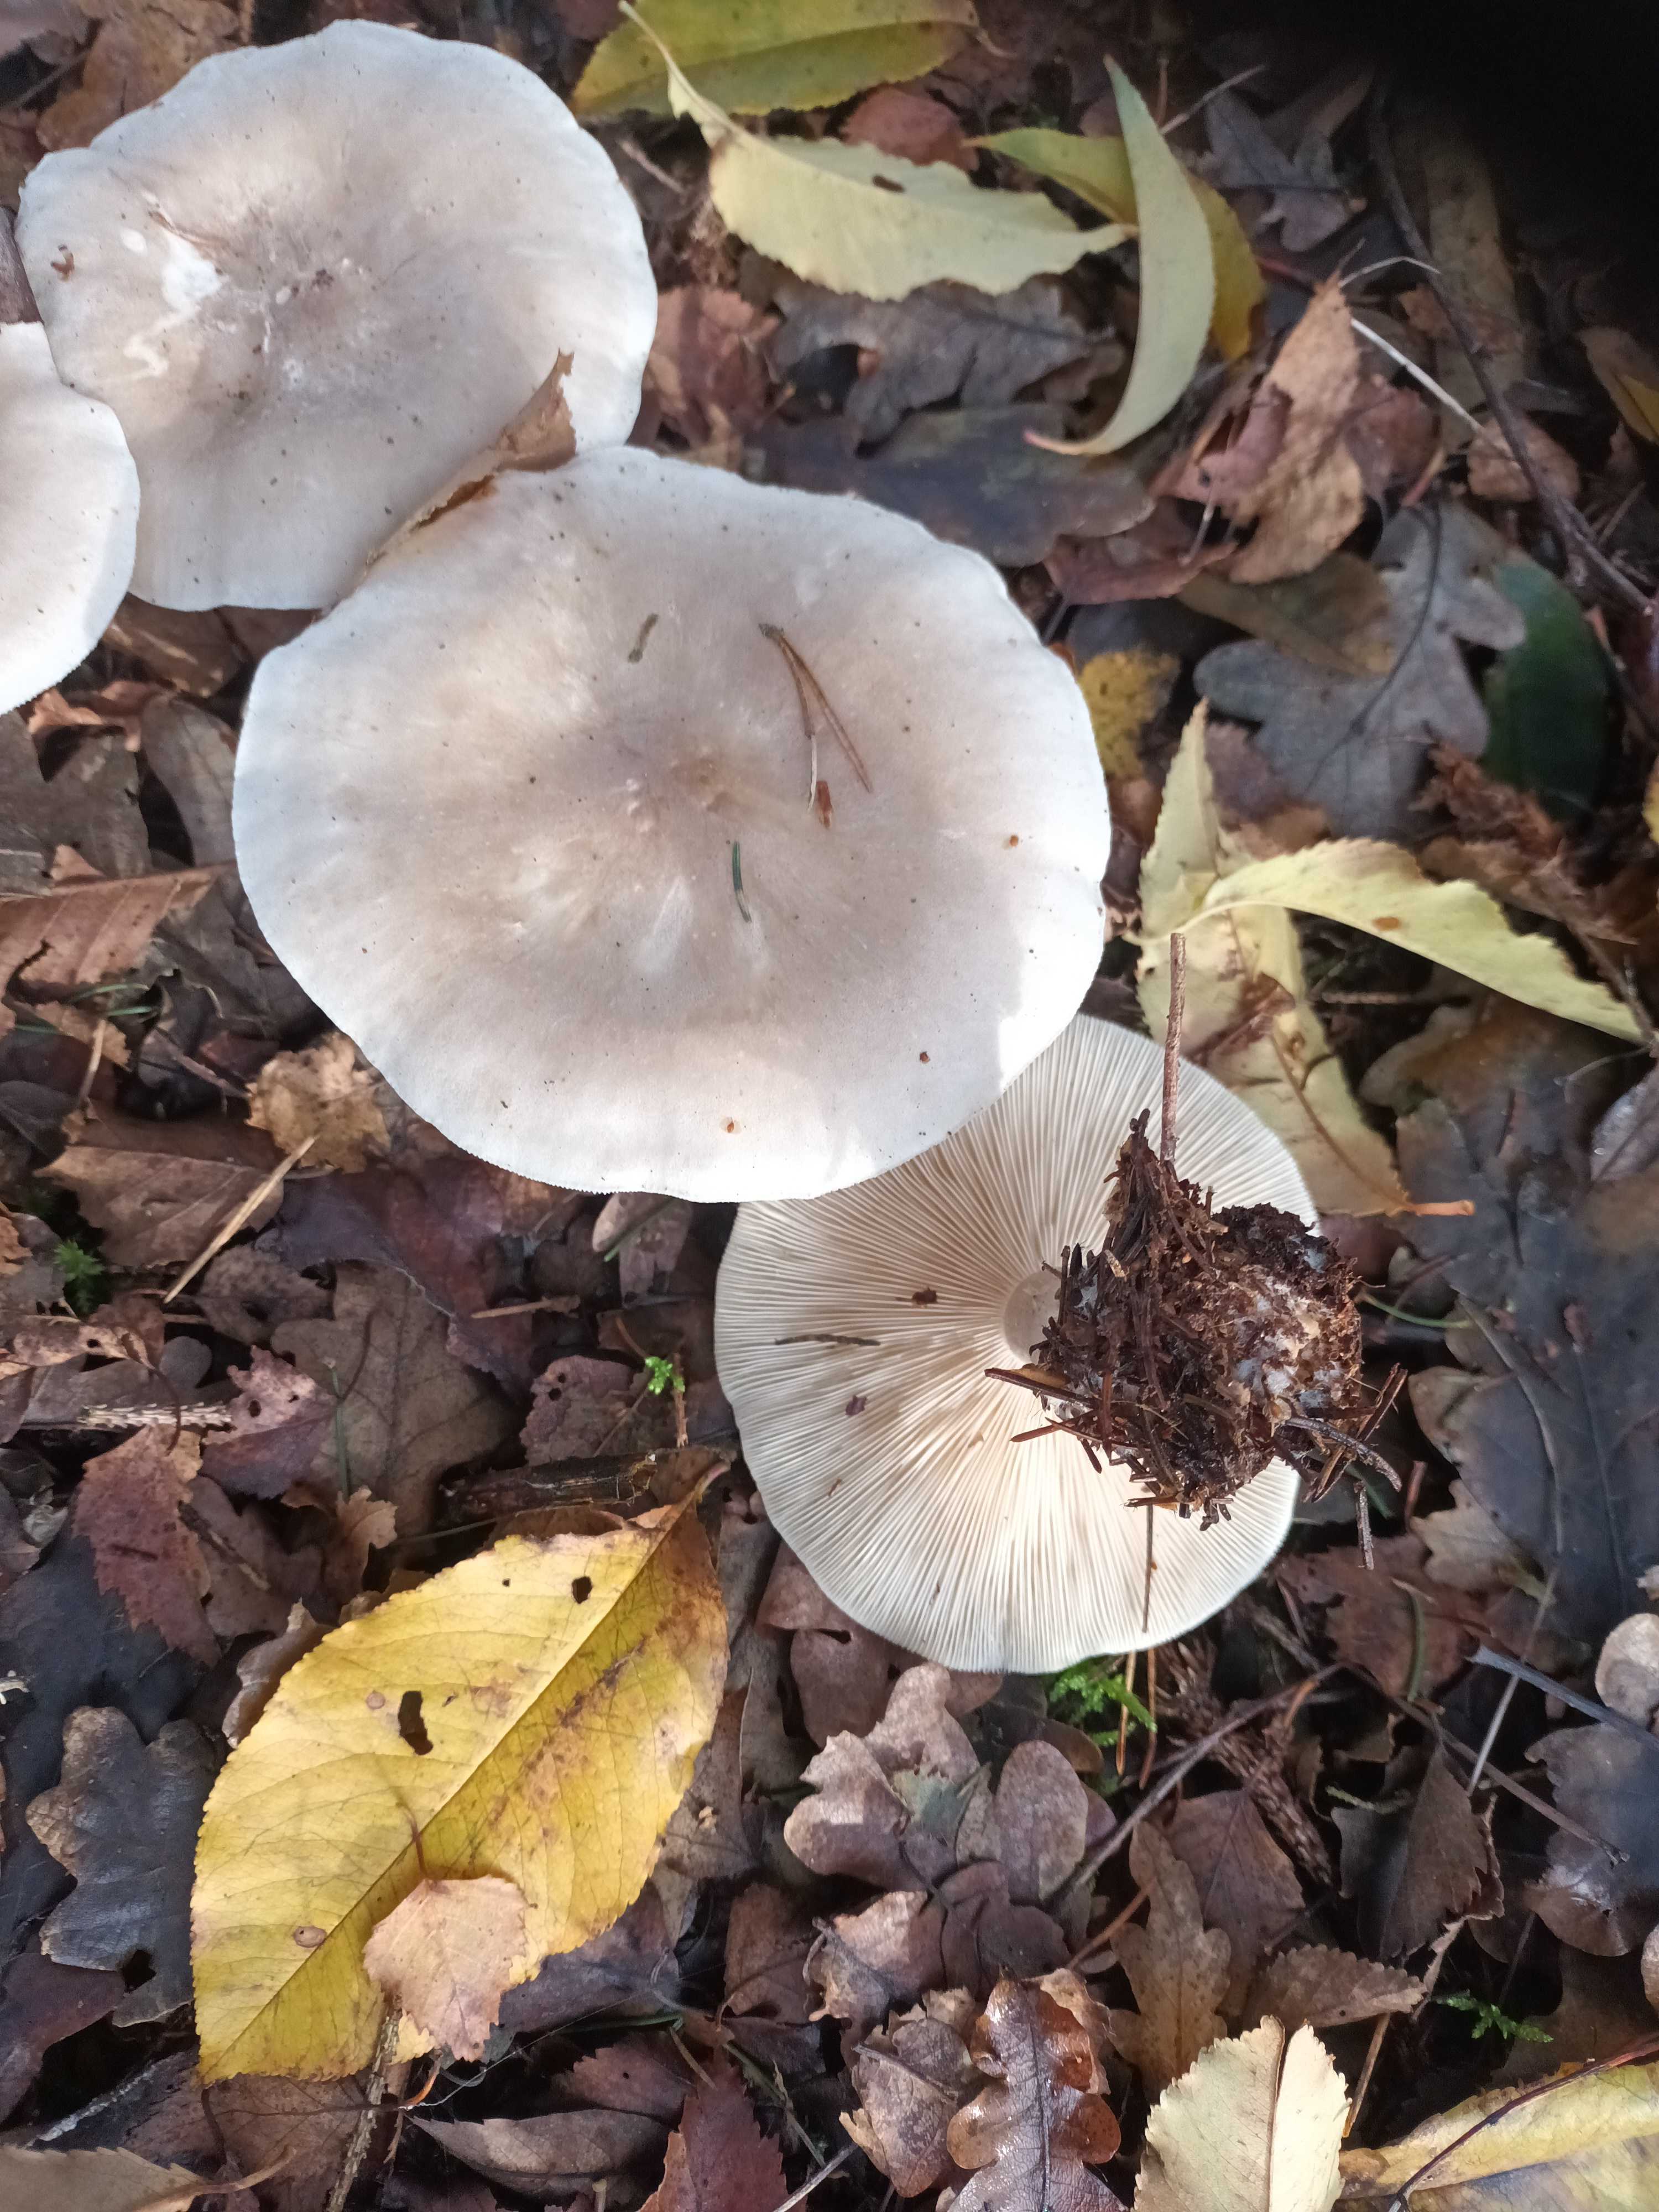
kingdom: Fungi
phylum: Basidiomycota
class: Agaricomycetes
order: Agaricales
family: Tricholomataceae
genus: Clitocybe
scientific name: Clitocybe nebularis
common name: tåge-tragthat
